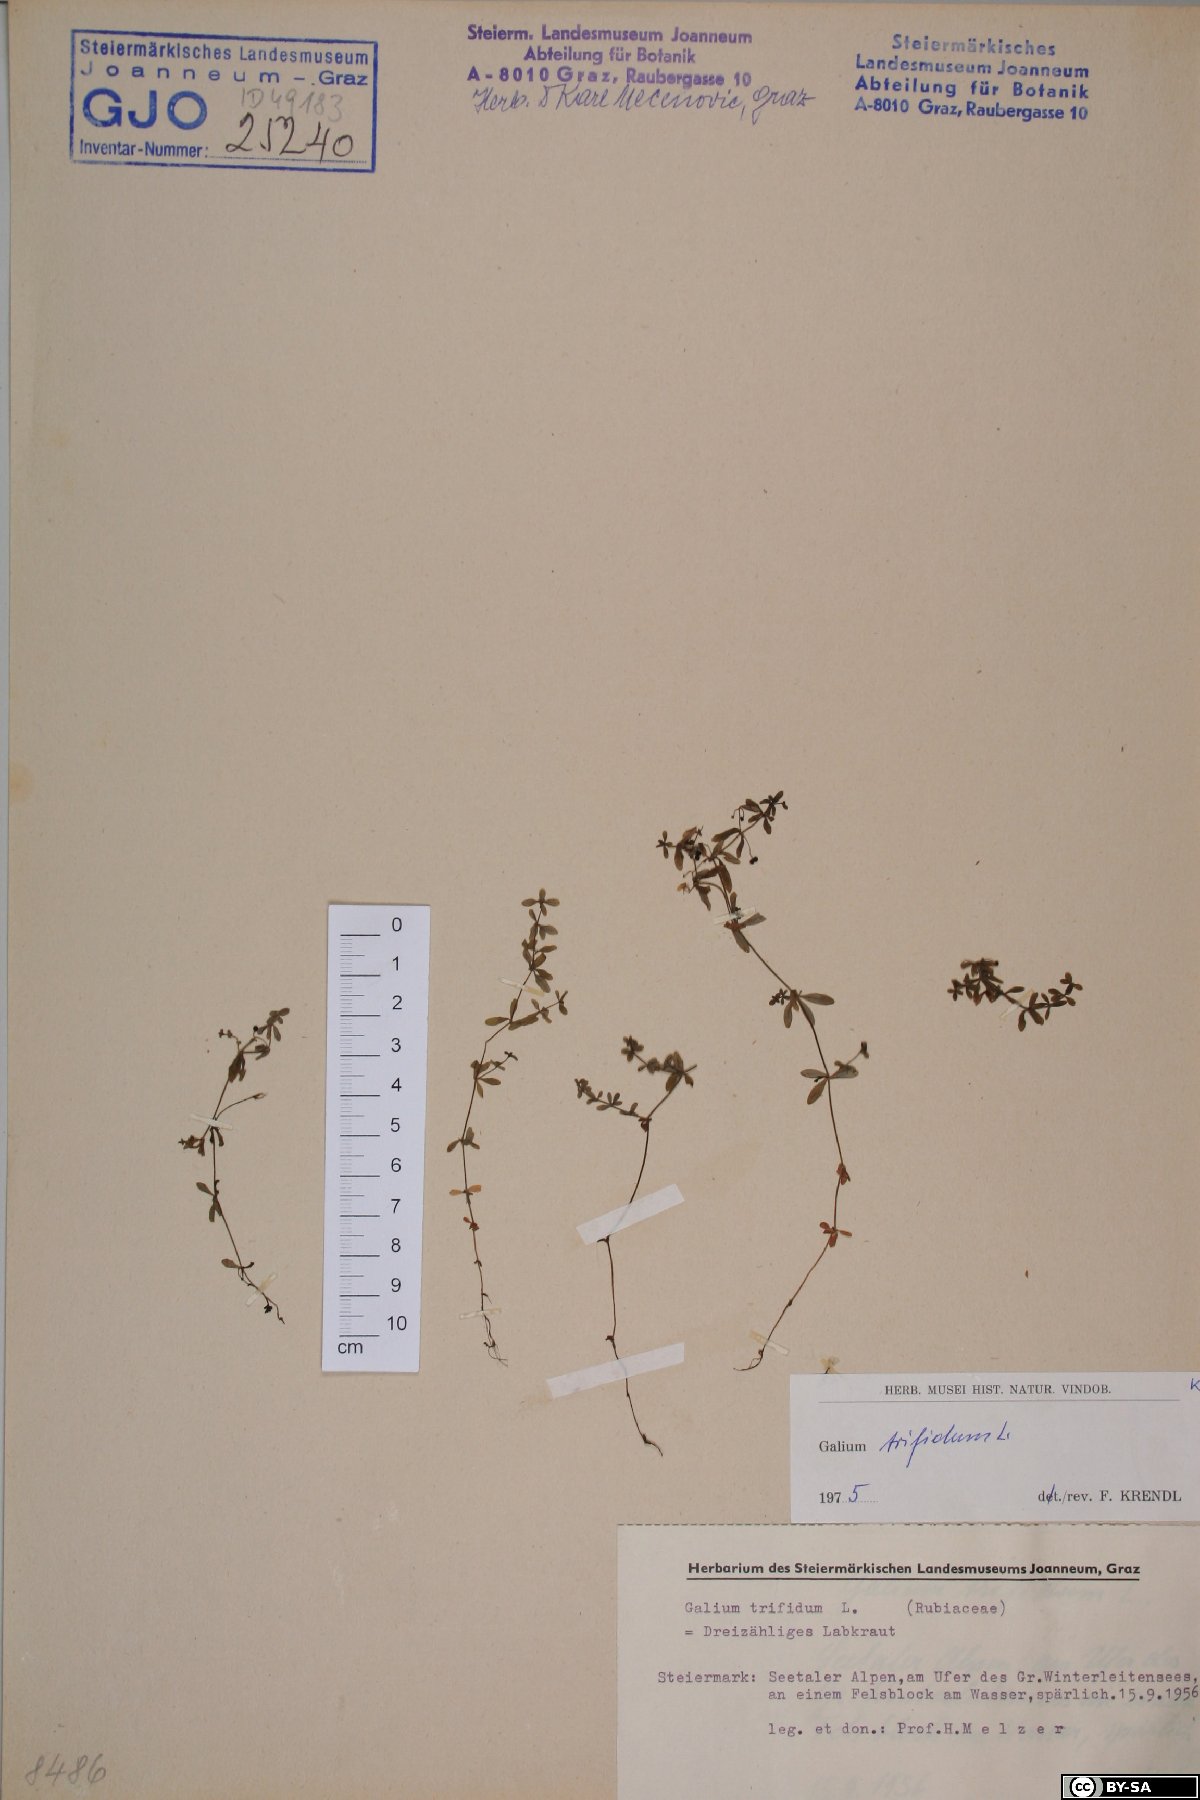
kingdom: Plantae
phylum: Tracheophyta
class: Magnoliopsida
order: Gentianales
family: Rubiaceae
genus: Galium
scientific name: Galium trifidum
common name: Small bedstraw
